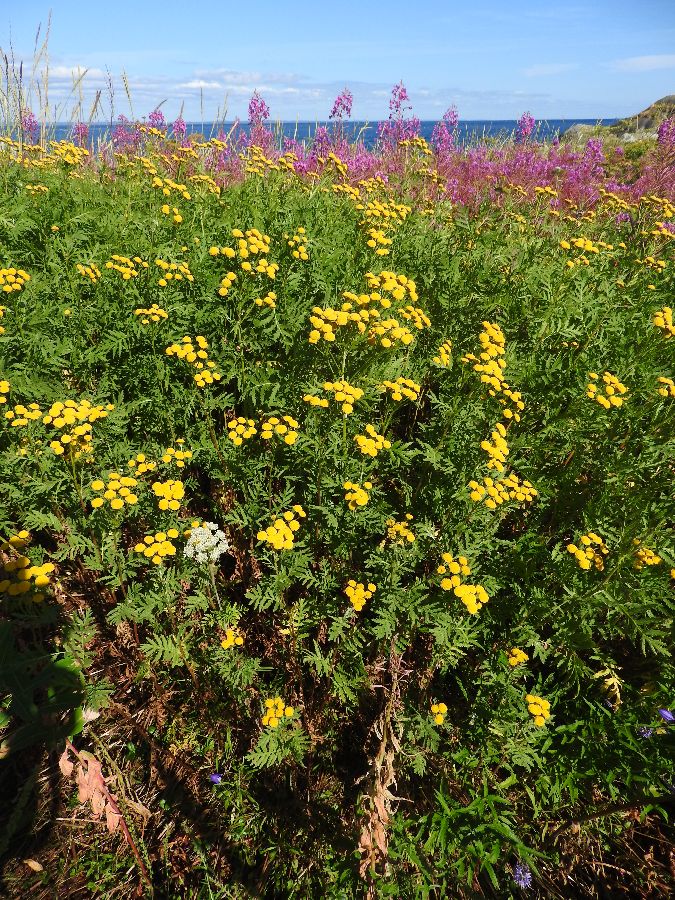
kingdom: Plantae
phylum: Tracheophyta
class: Magnoliopsida
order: Asterales
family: Asteraceae
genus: Tanacetum
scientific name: Tanacetum vulgare
